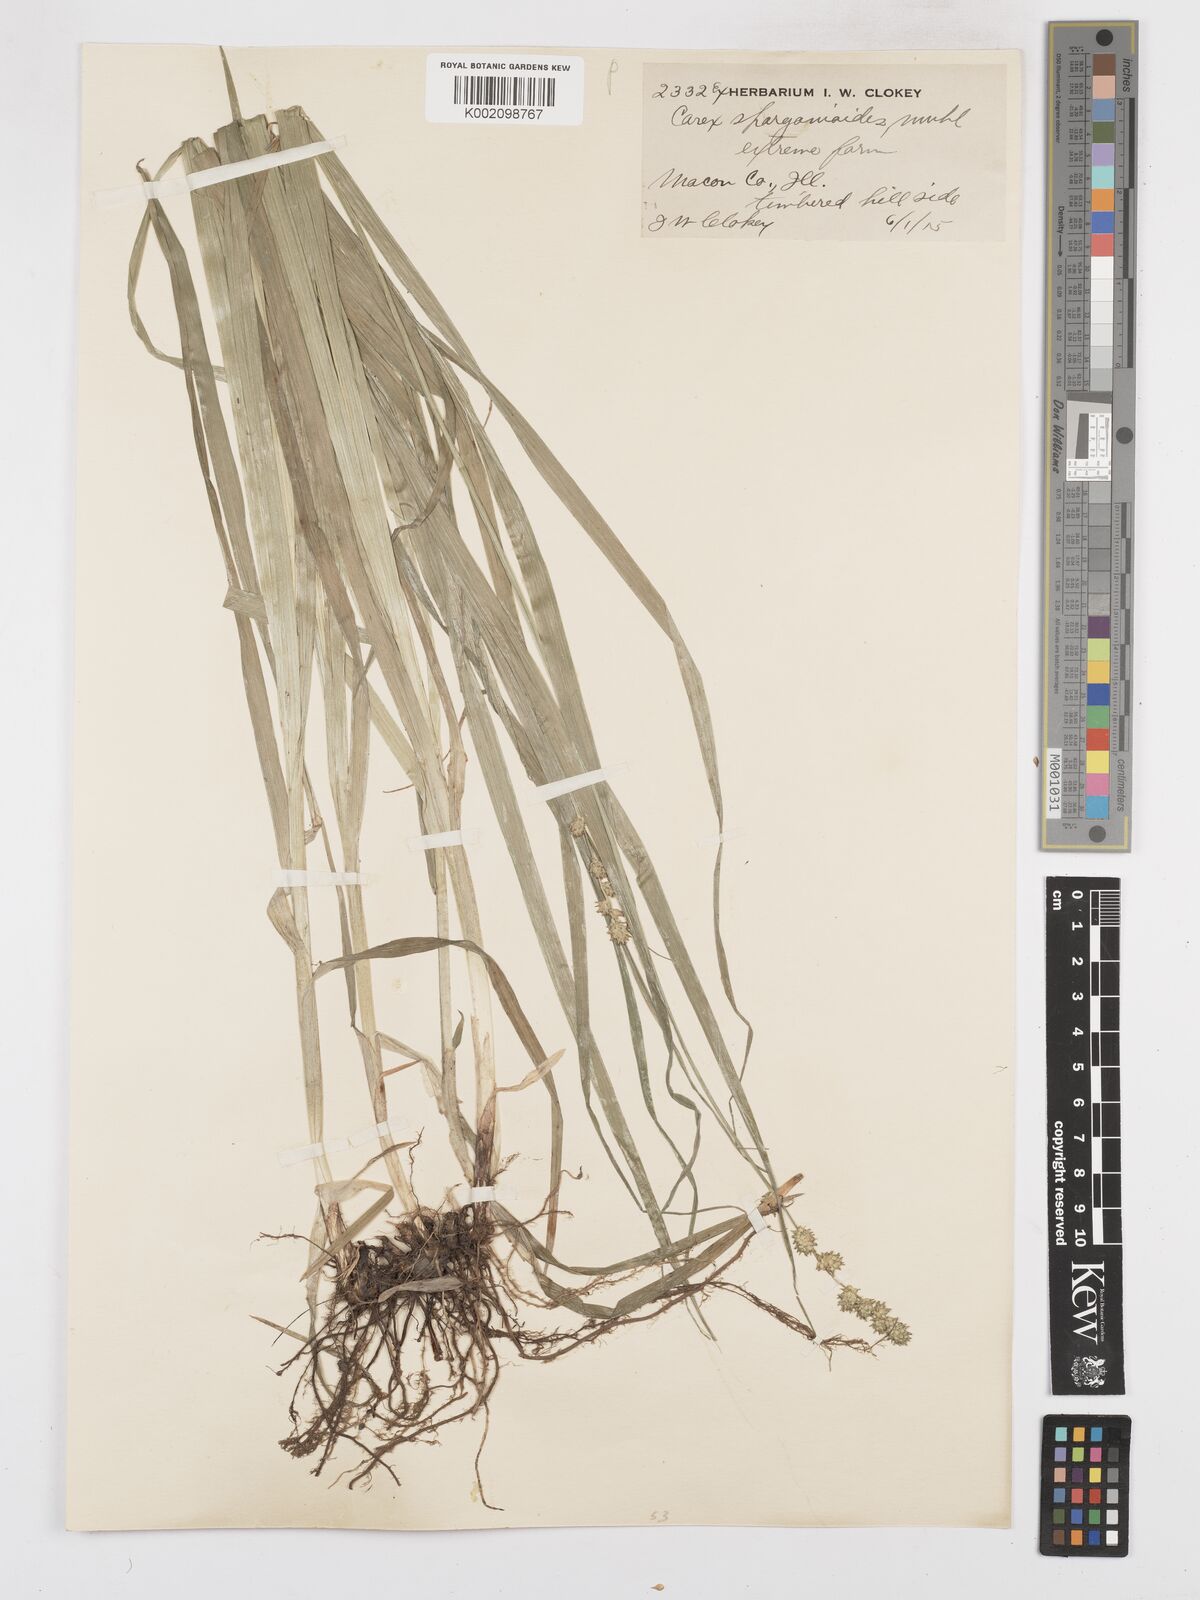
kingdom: Plantae
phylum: Tracheophyta
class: Liliopsida
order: Poales
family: Cyperaceae
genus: Carex
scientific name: Carex sparganioides
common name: Burreed sedge
